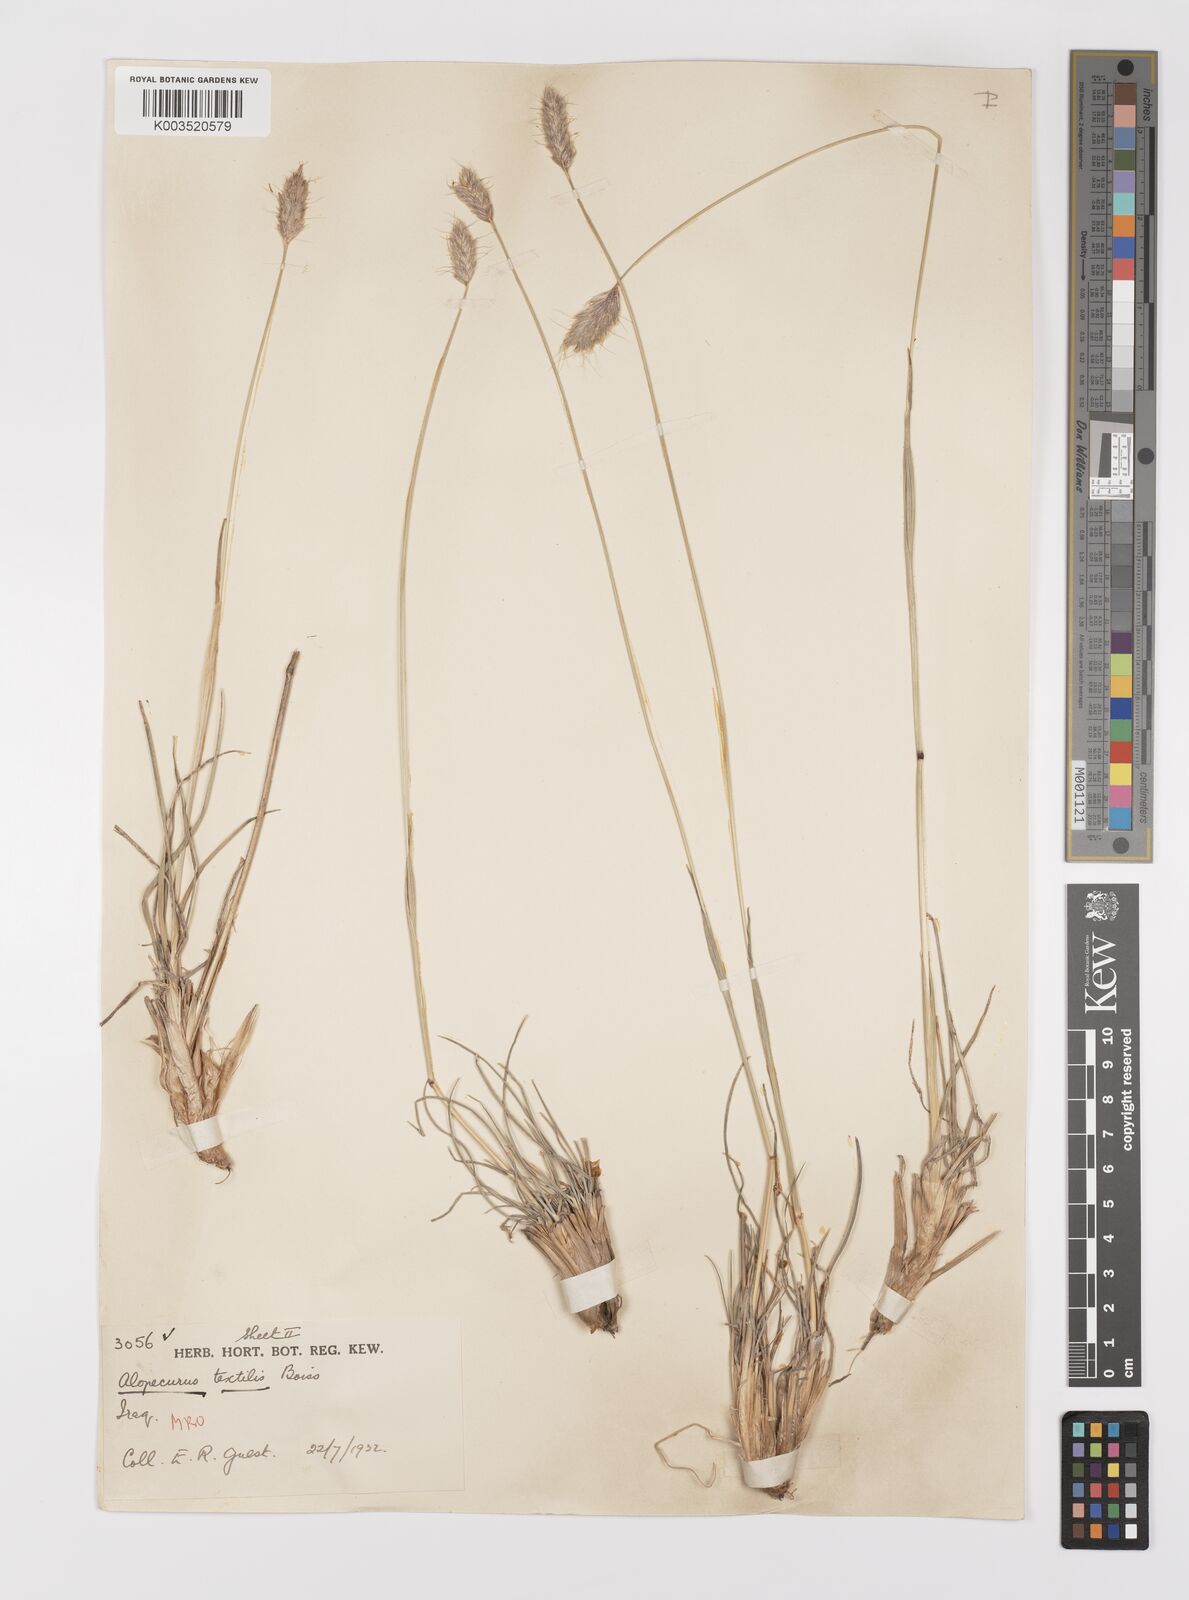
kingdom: Plantae
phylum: Tracheophyta
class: Liliopsida
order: Poales
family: Poaceae
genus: Alopecurus
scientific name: Alopecurus textilis
